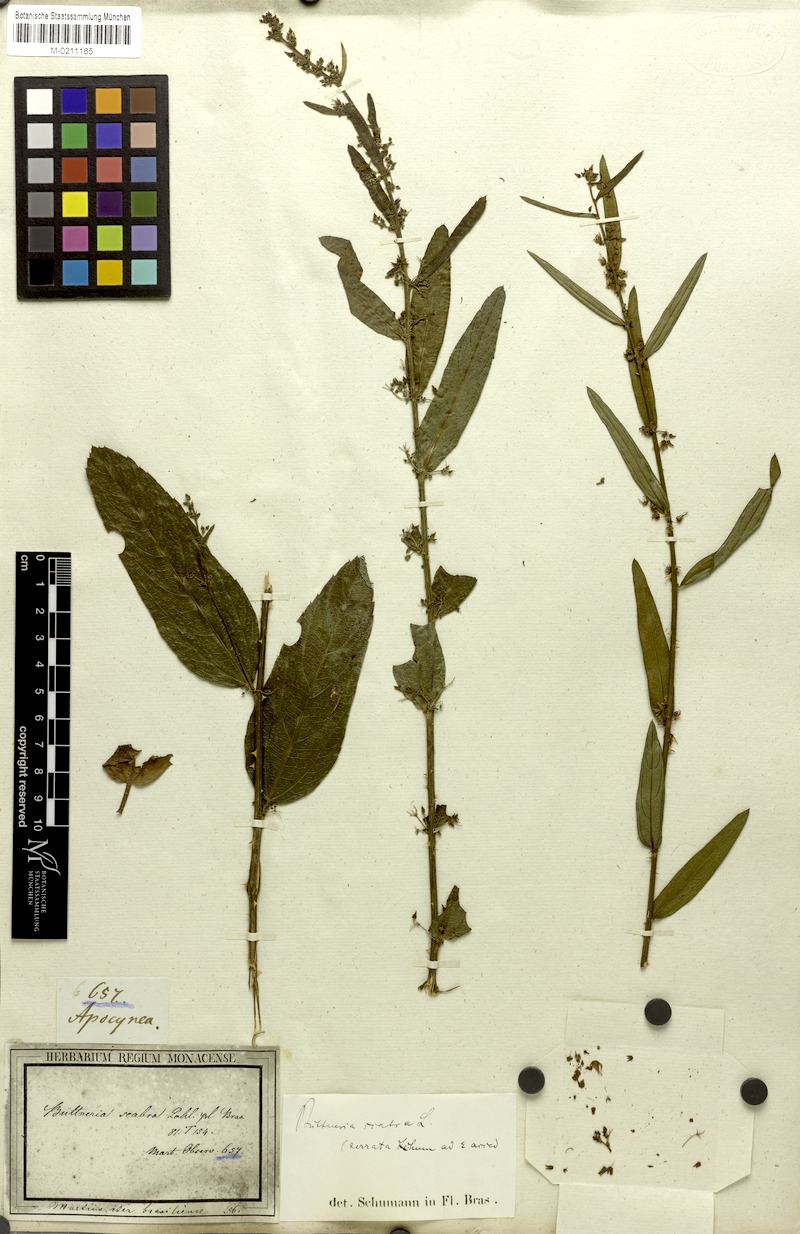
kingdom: Plantae
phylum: Tracheophyta
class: Magnoliopsida
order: Malvales
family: Malvaceae
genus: Byttneria
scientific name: Byttneria scabra
